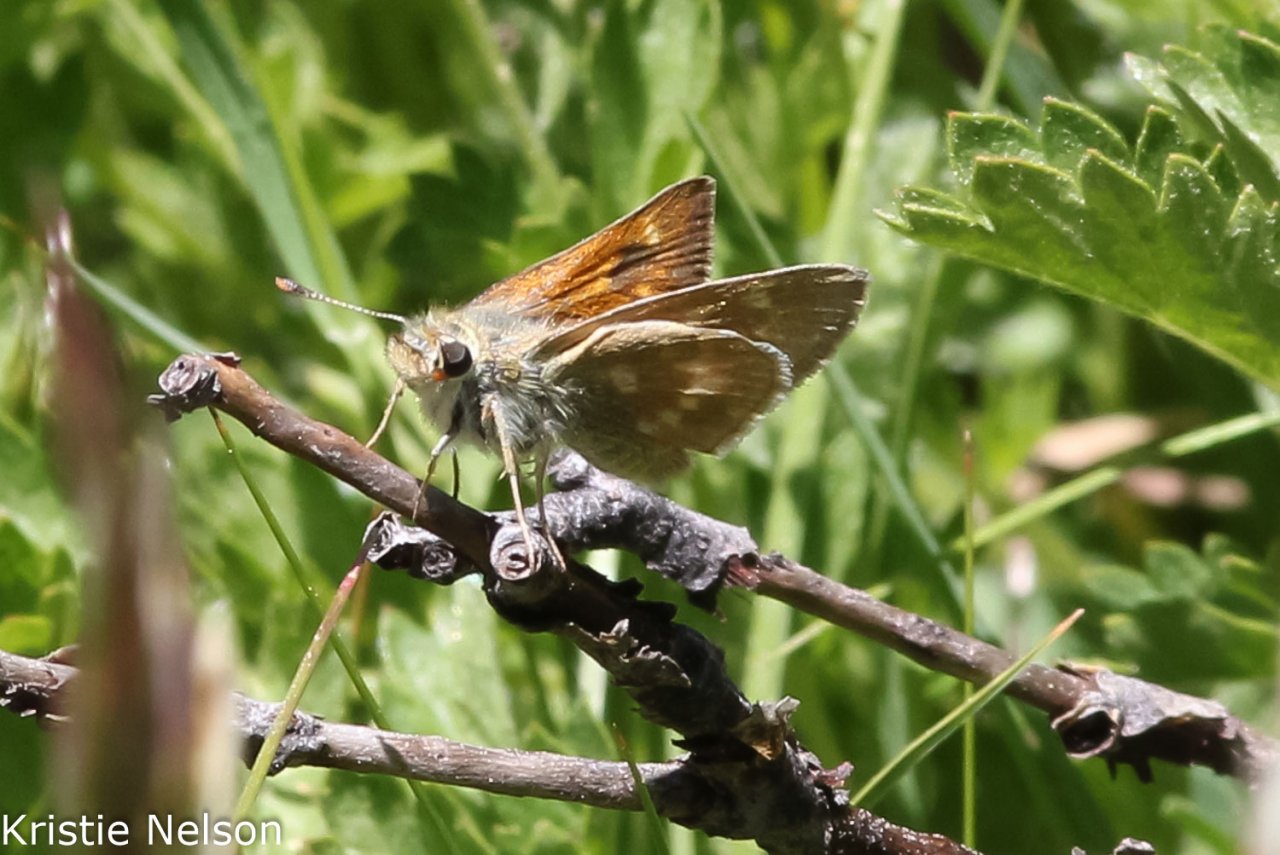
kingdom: Animalia
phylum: Arthropoda
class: Insecta
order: Lepidoptera
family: Hesperiidae
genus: Polites
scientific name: Polites mystic
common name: Sonoran Skipper
